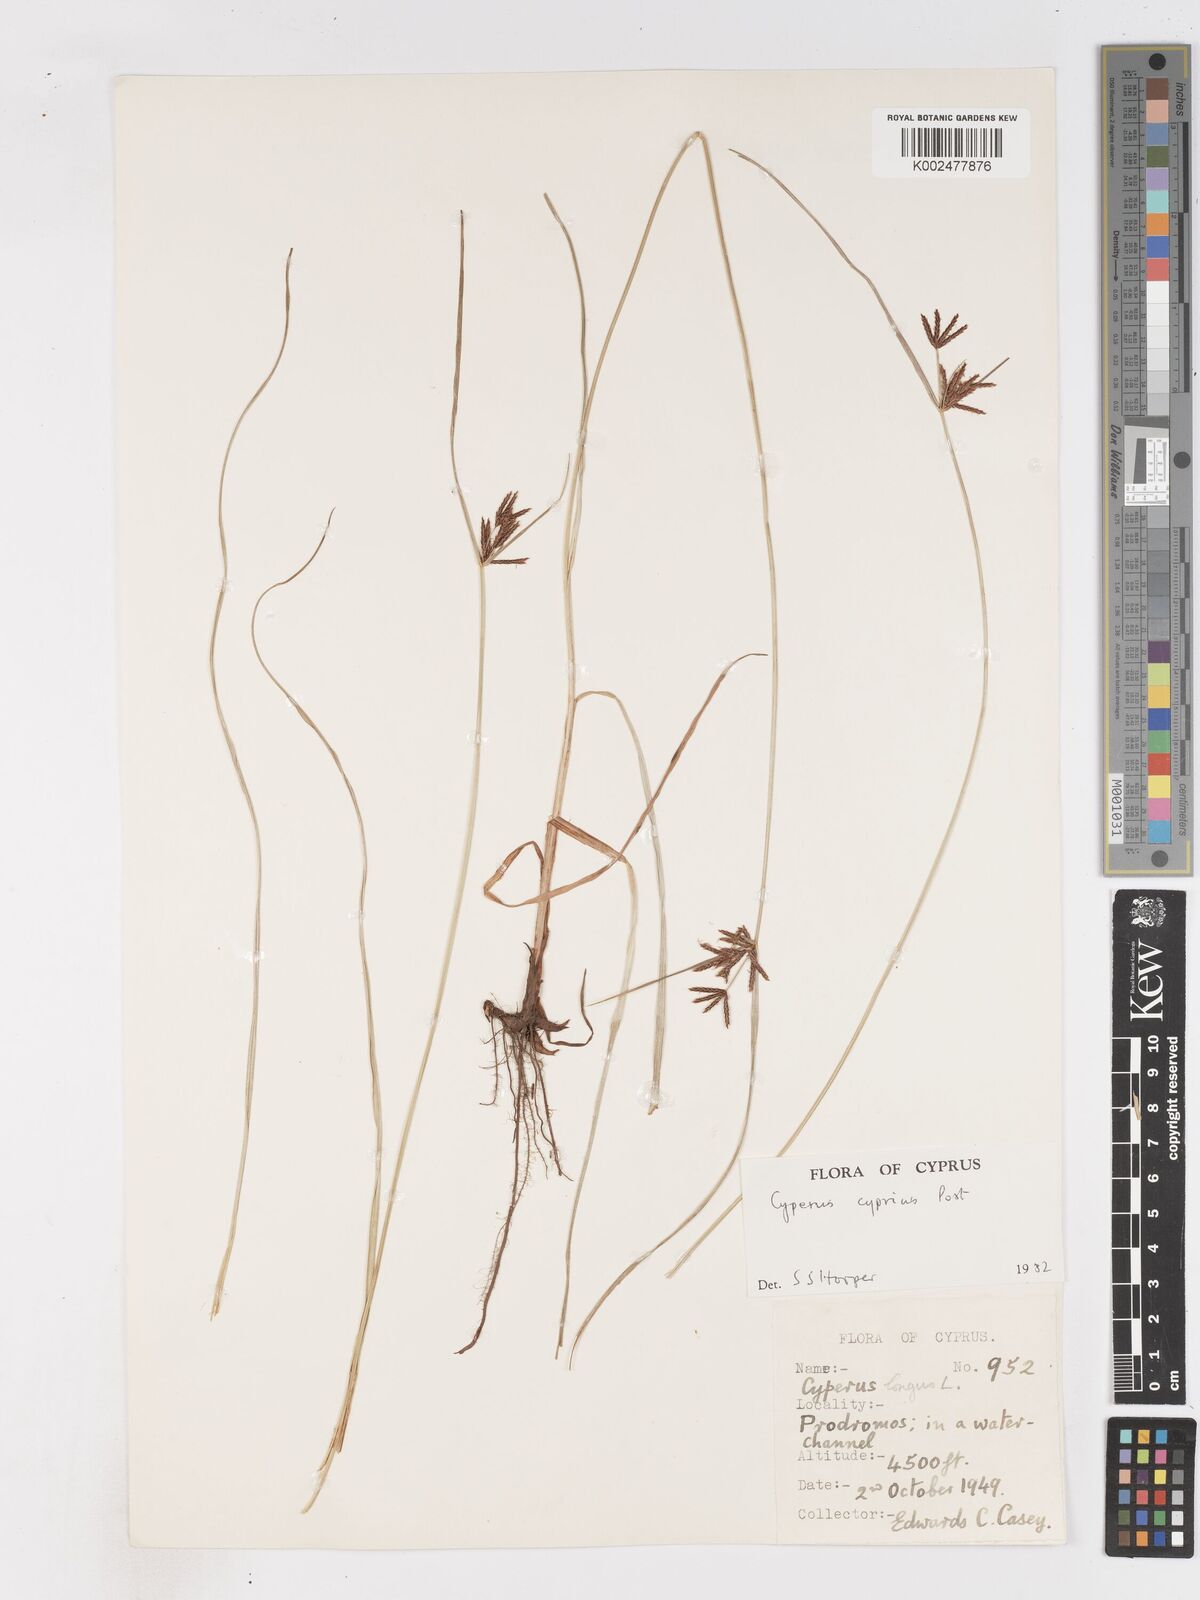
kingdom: Plantae
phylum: Tracheophyta
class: Liliopsida
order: Poales
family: Cyperaceae
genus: Cyperus
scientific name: Cyperus longus
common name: Galingale
